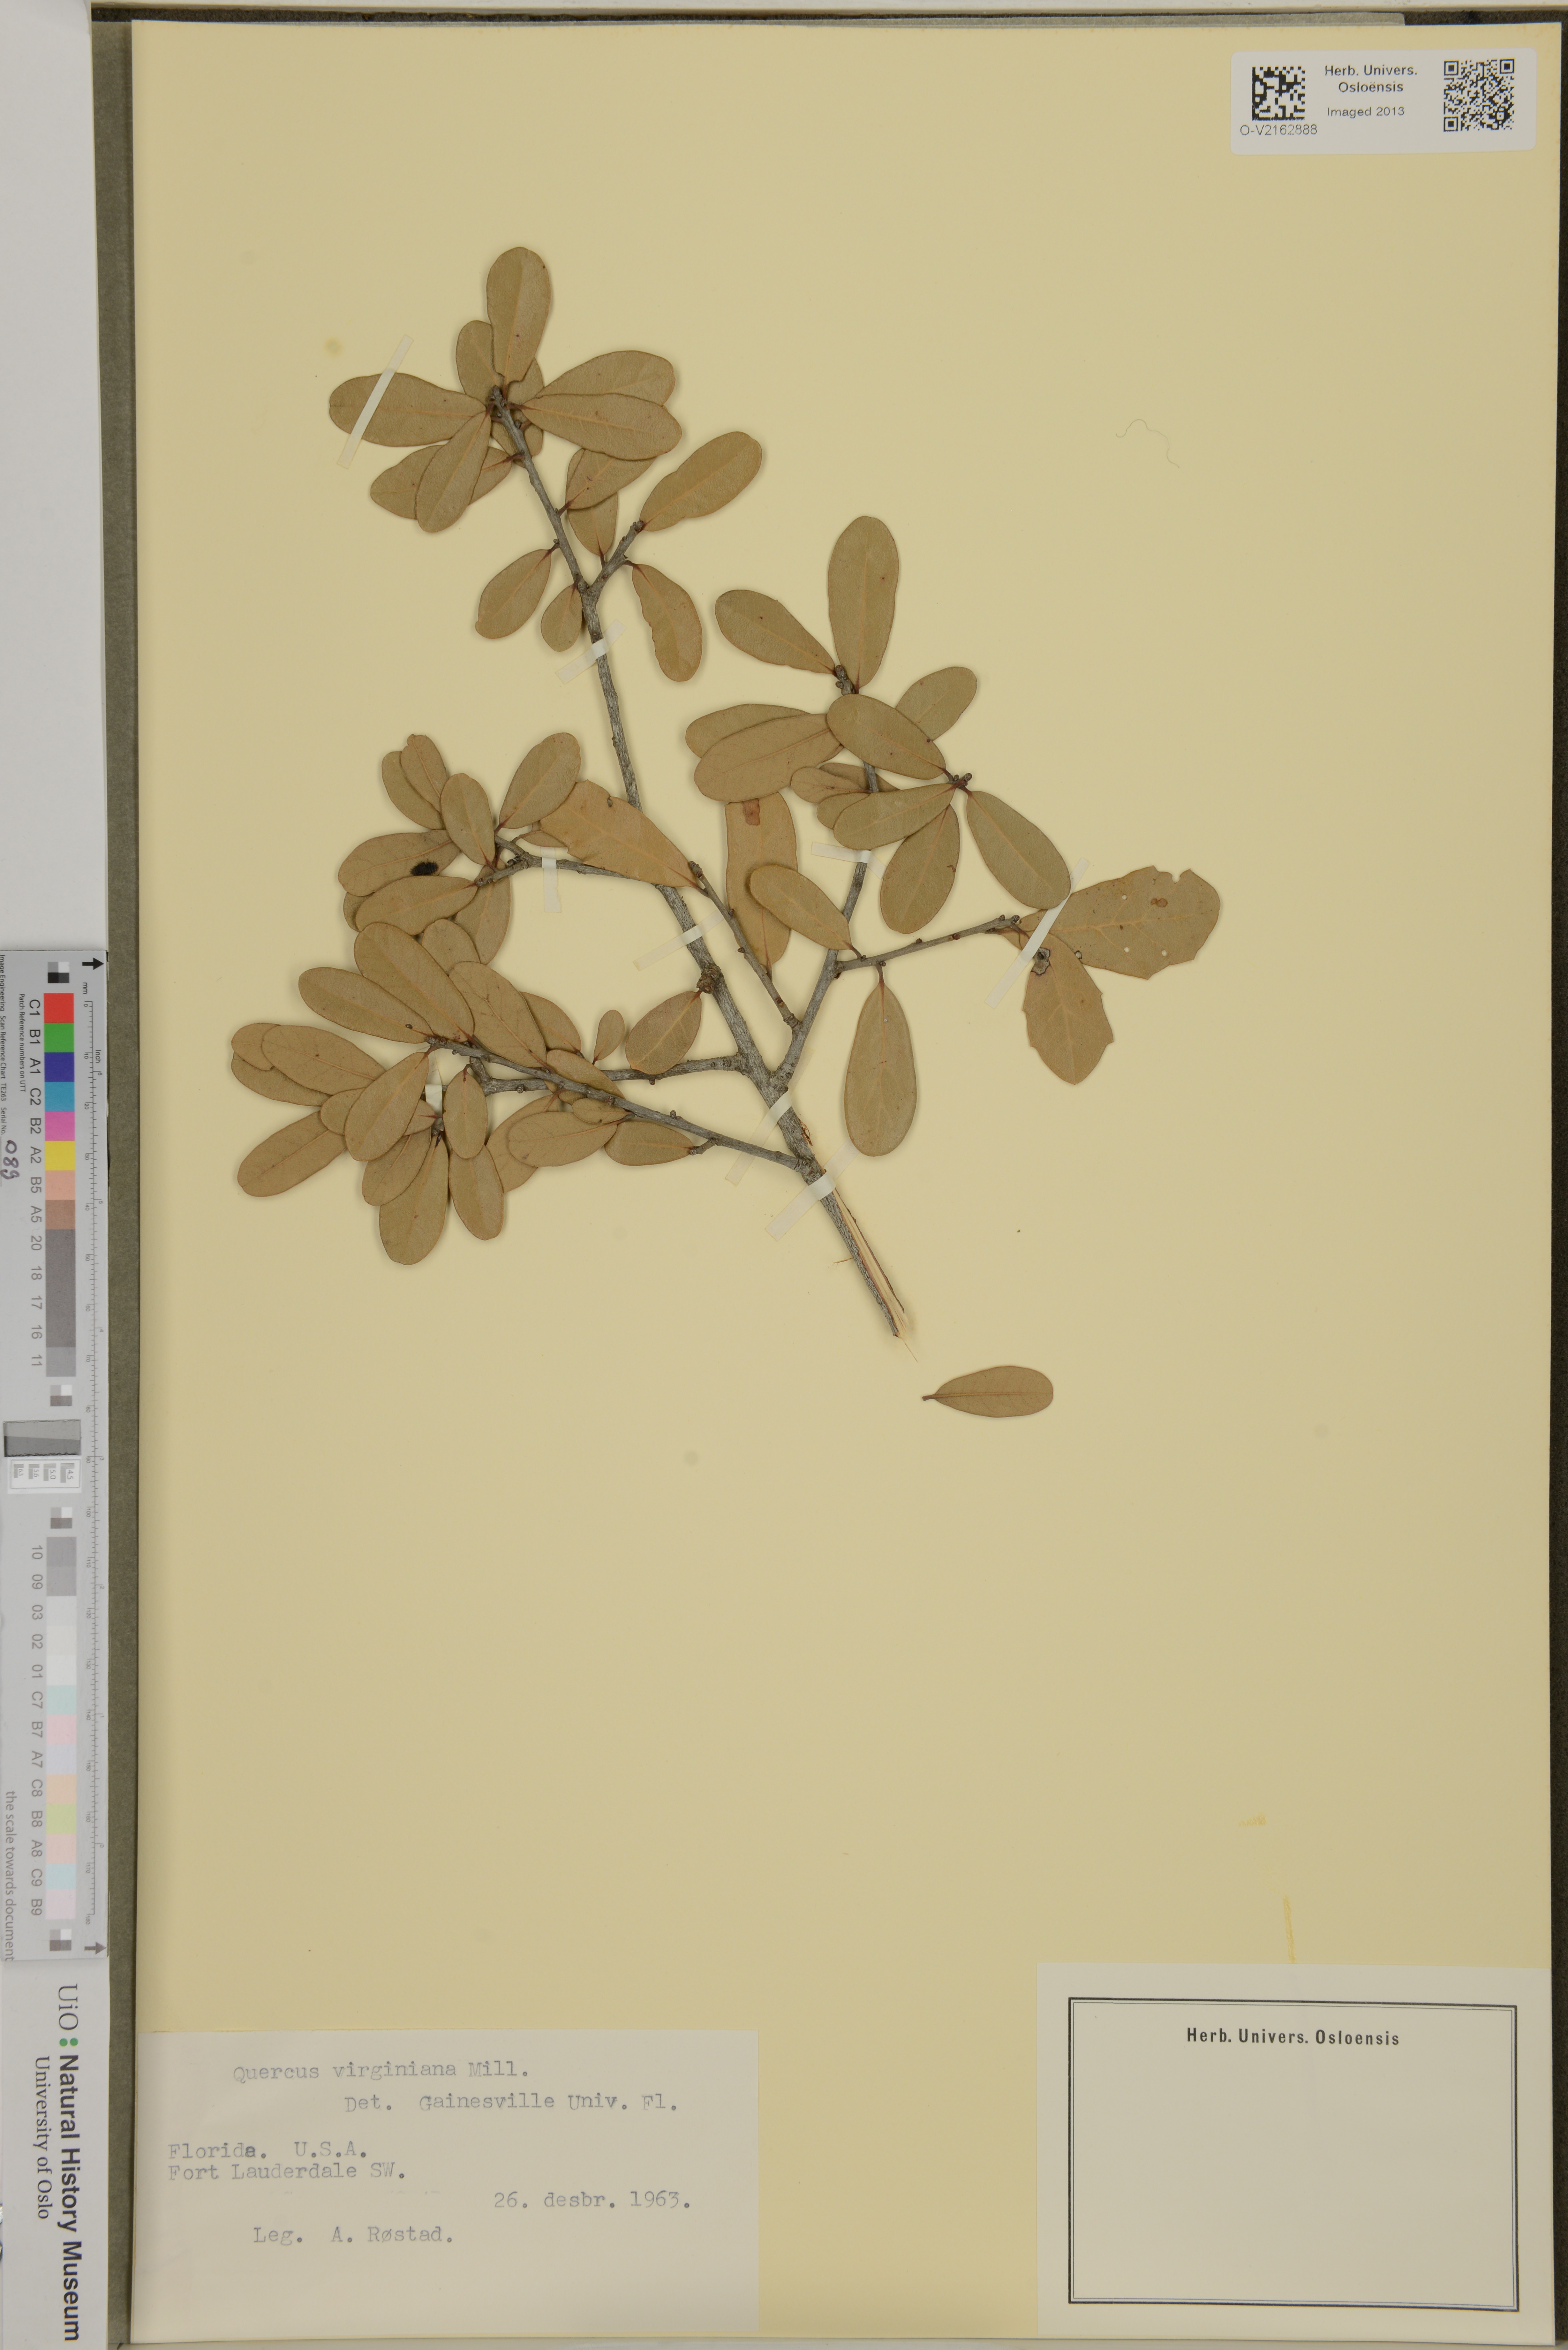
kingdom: Plantae
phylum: Tracheophyta
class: Magnoliopsida
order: Fagales
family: Fagaceae
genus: Quercus
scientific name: Quercus virginiana
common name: Southern live oak
